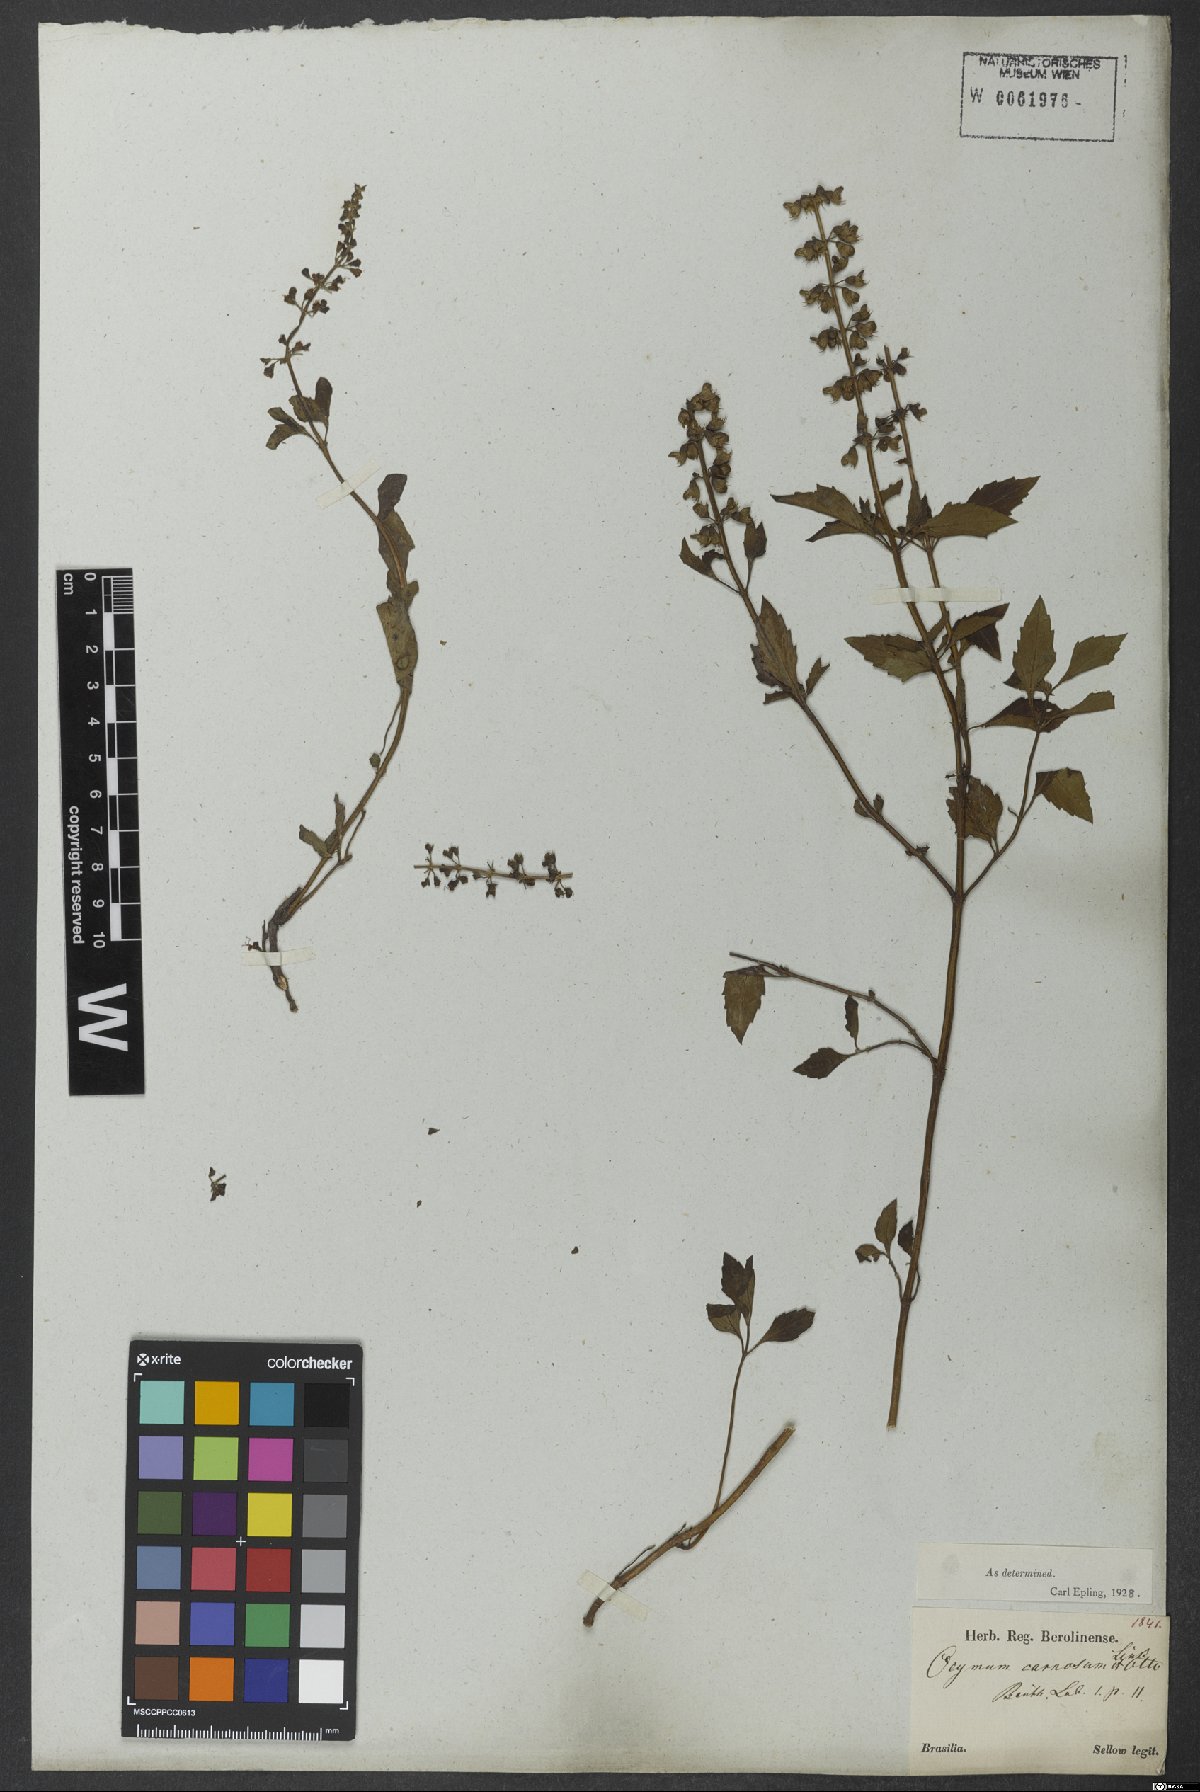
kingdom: Plantae
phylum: Tracheophyta
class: Magnoliopsida
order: Lamiales
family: Lamiaceae
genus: Ocimum
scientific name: Ocimum carnosum
